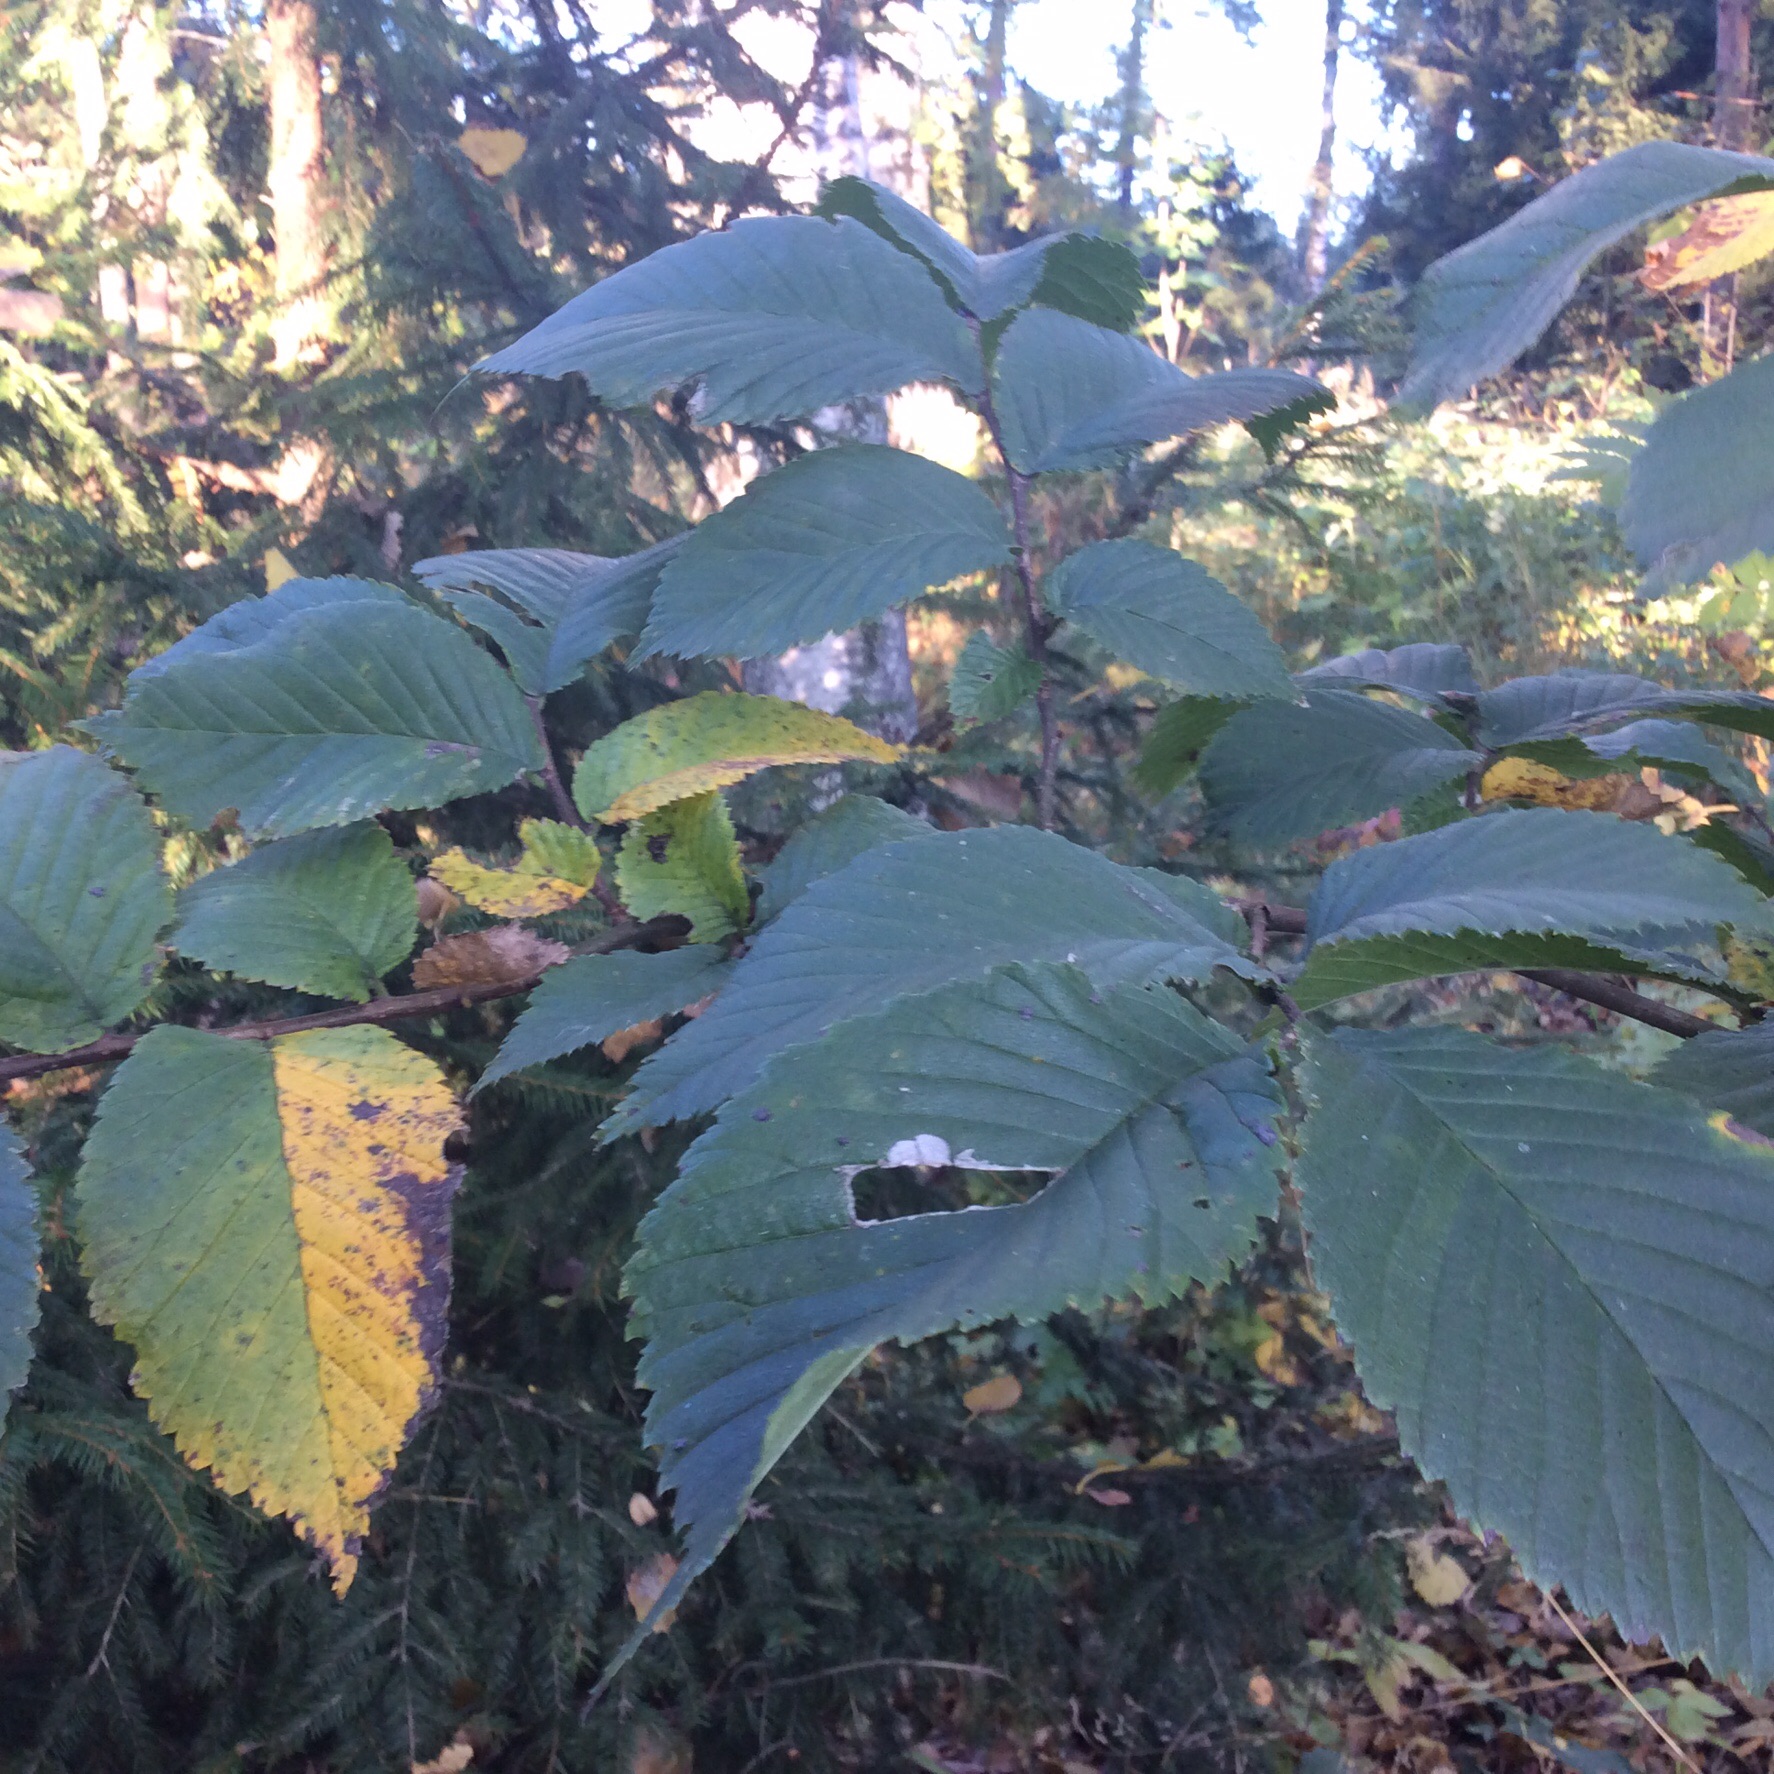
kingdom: Plantae
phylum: Tracheophyta
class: Magnoliopsida
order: Rosales
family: Ulmaceae
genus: Ulmus
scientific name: Ulmus glabra
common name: Wych elm
